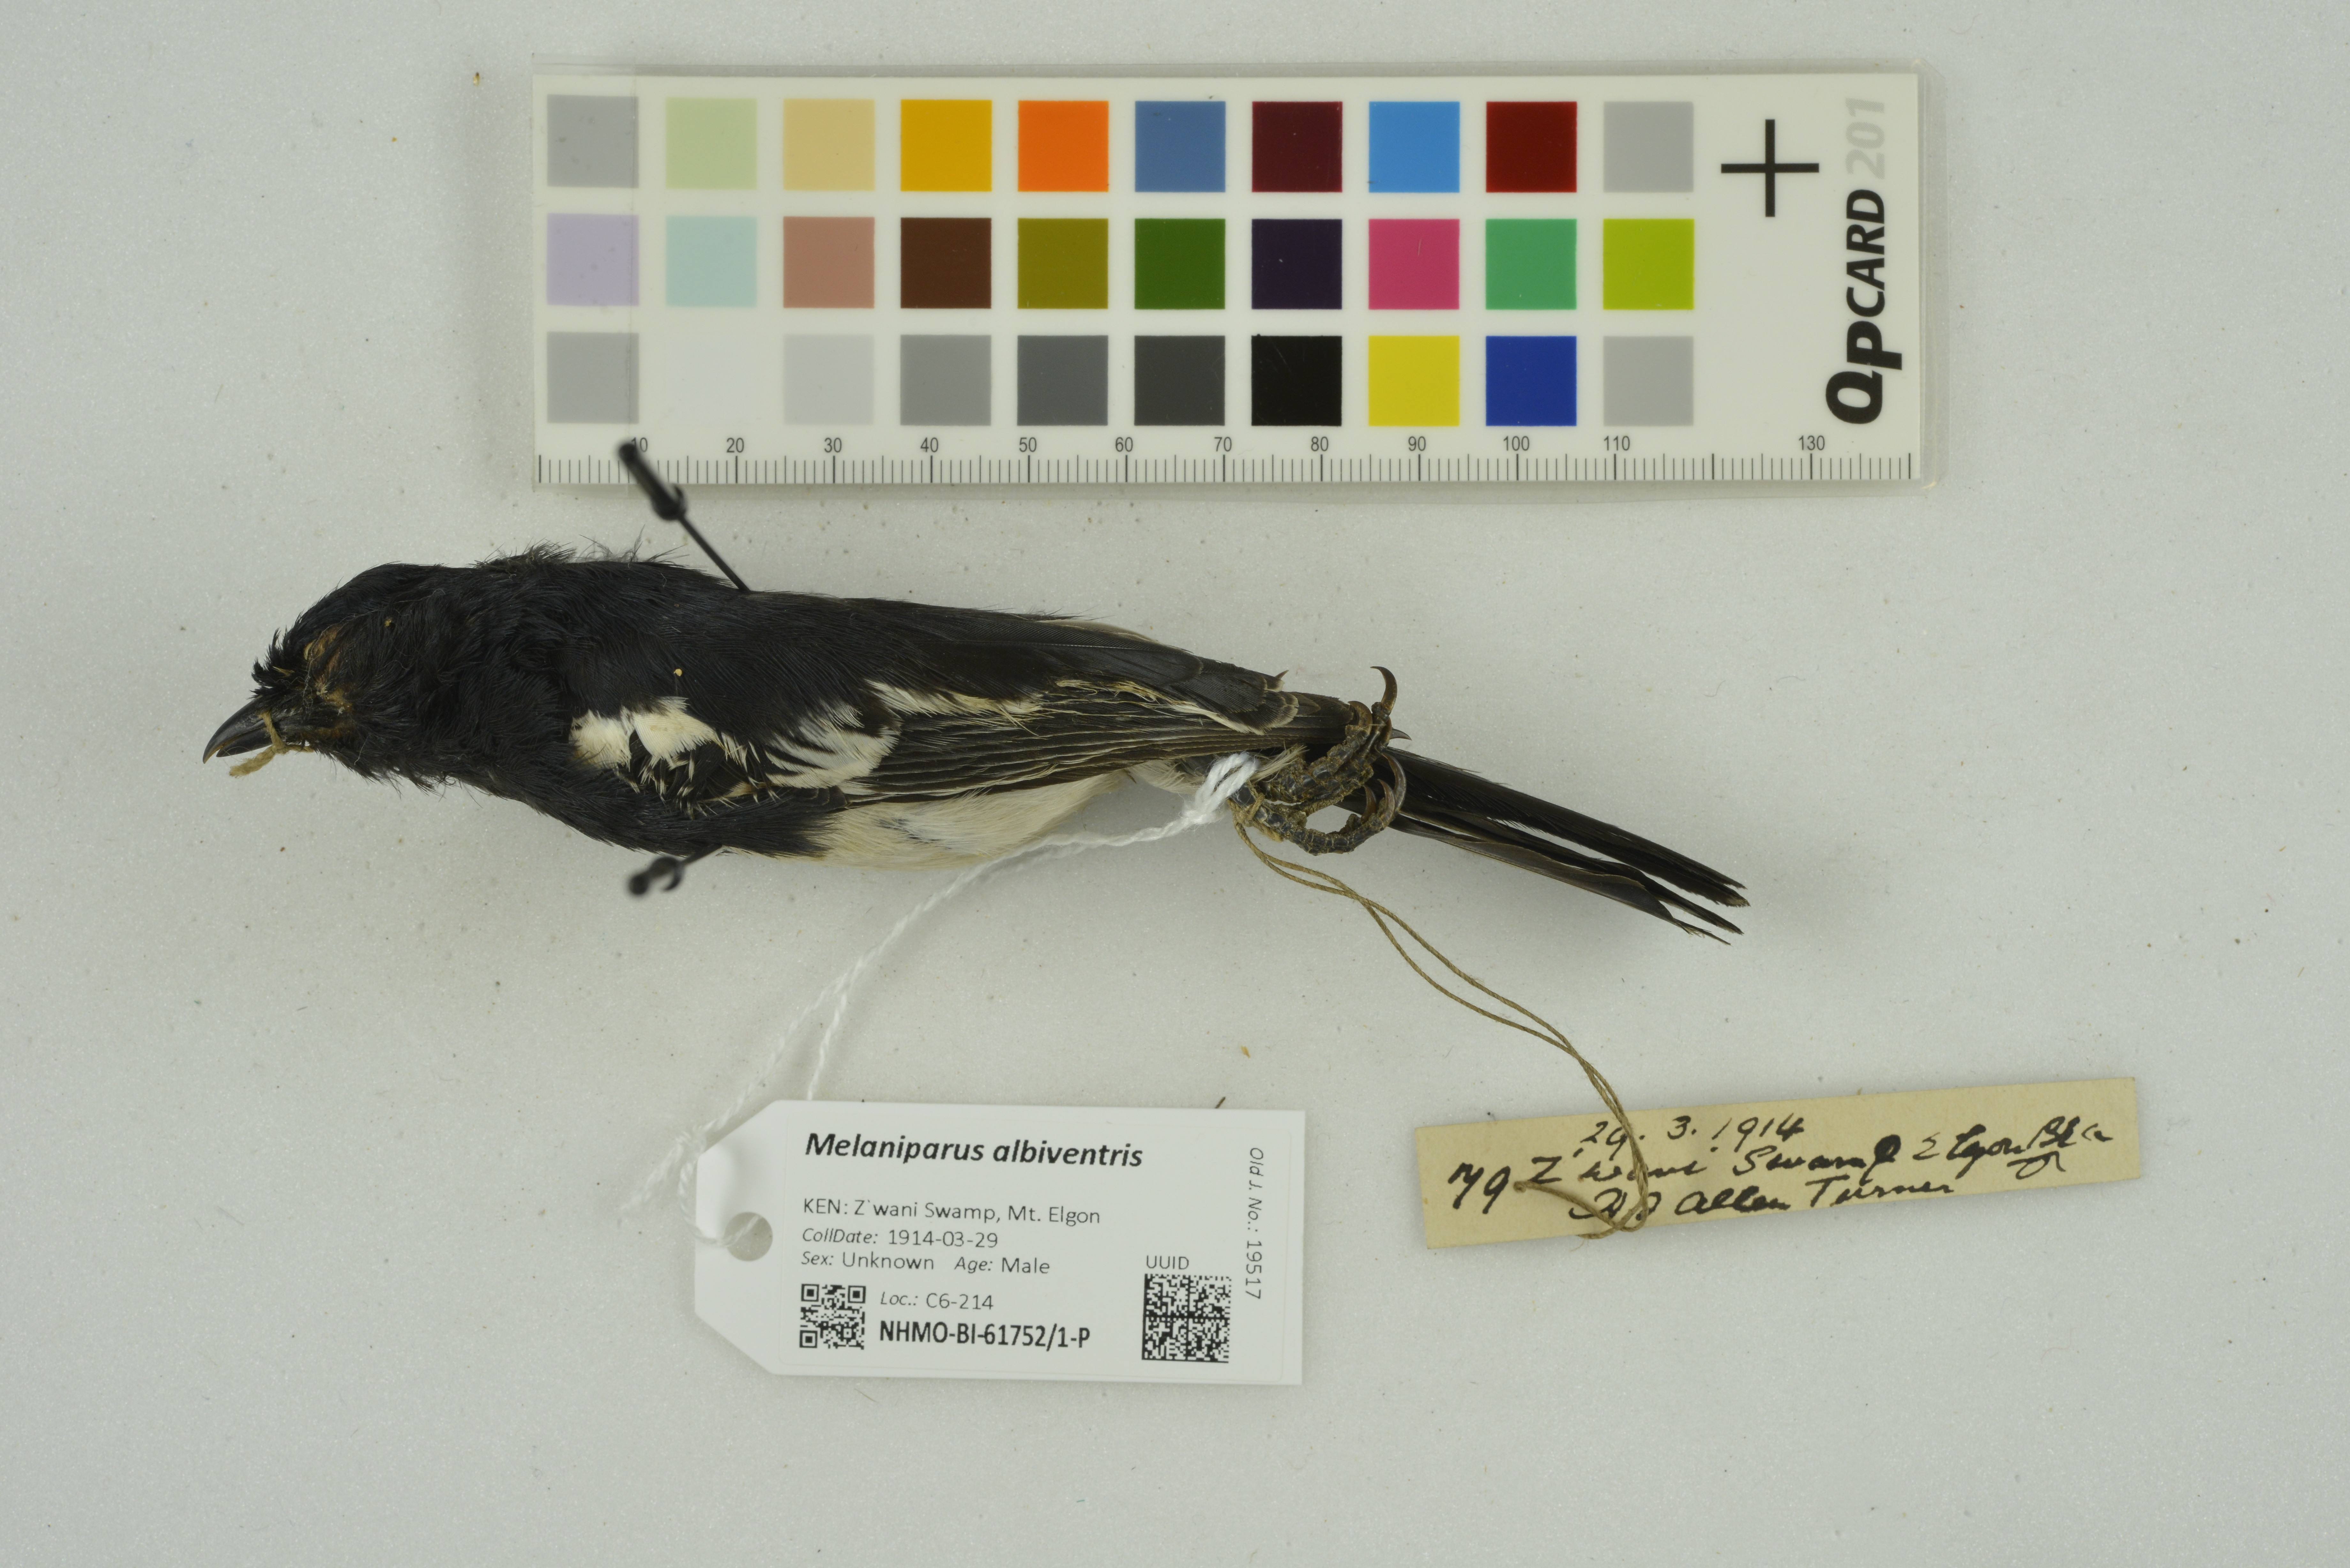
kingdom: Animalia
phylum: Chordata
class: Aves
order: Passeriformes
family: Paridae
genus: Parus
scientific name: Parus albiventris
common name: White-bellied tit
